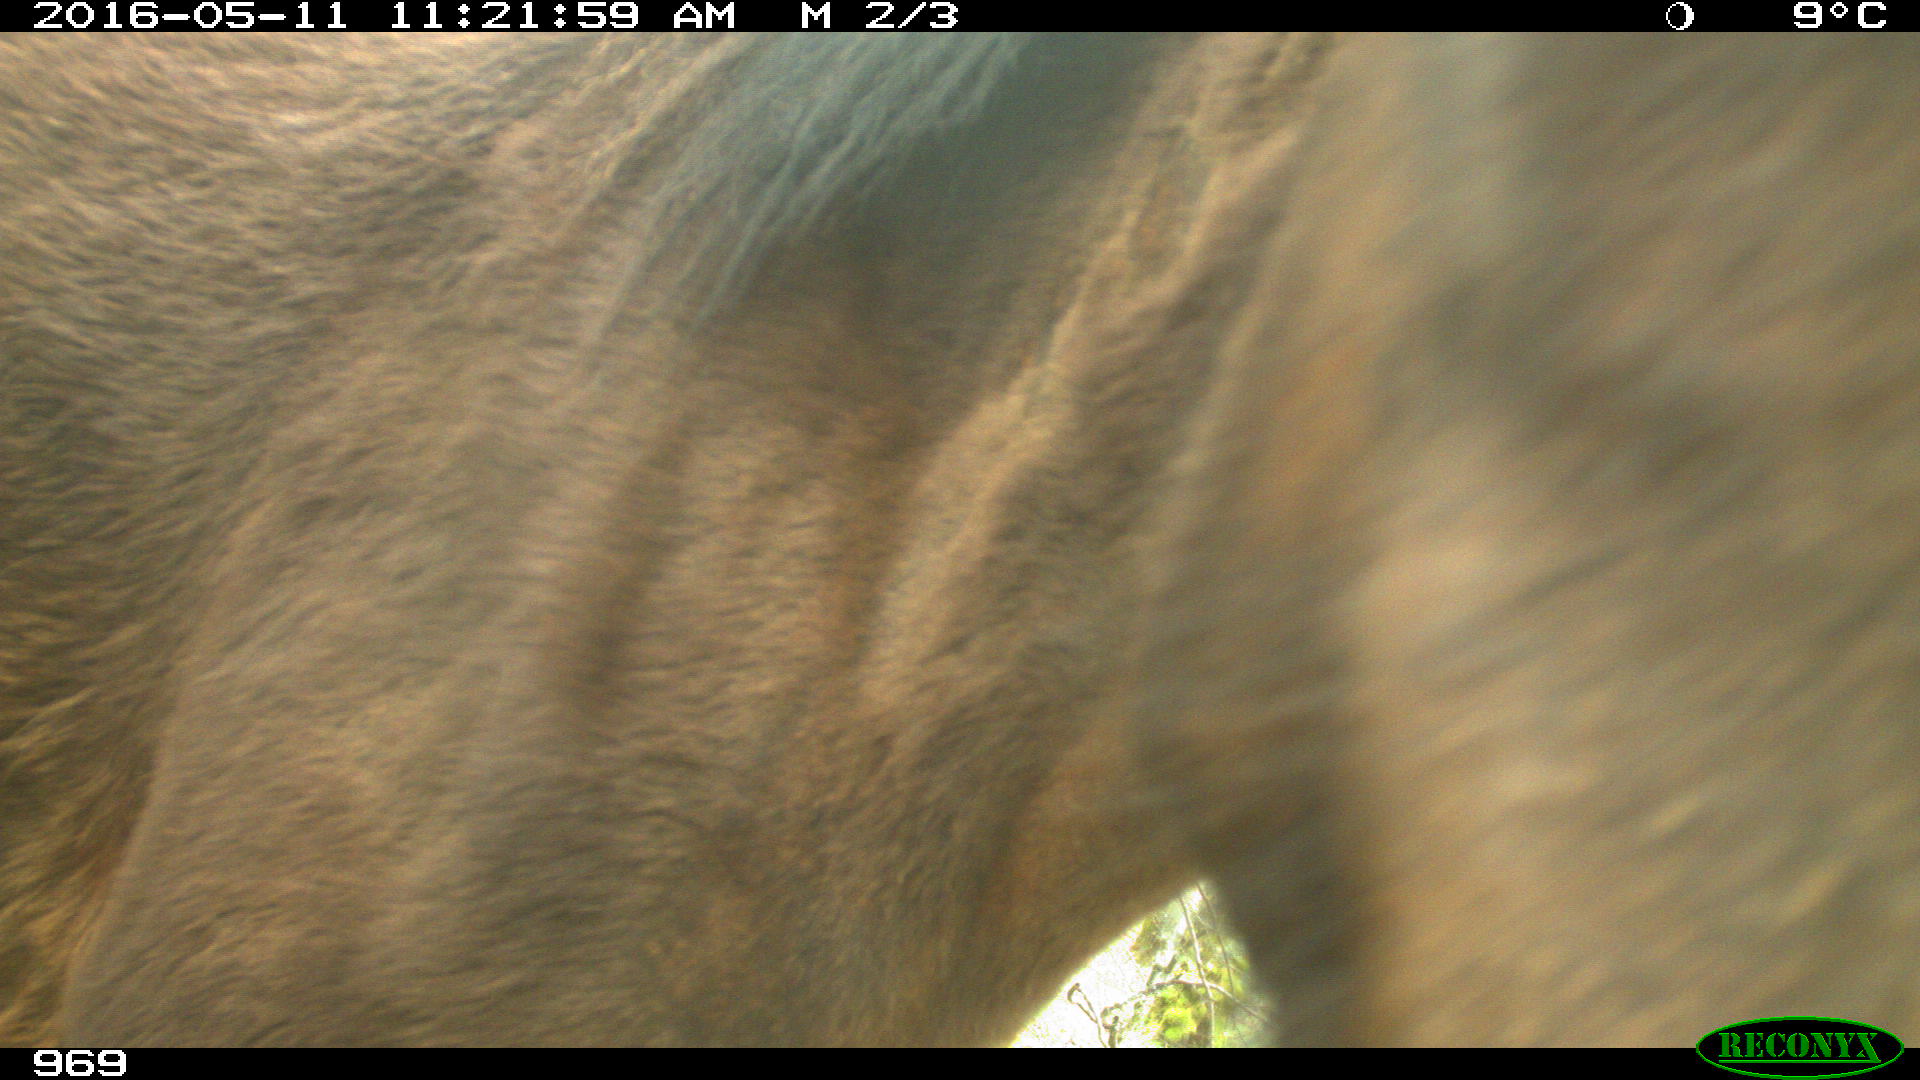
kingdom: Animalia
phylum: Chordata
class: Mammalia
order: Perissodactyla
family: Equidae
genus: Equus
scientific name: Equus caballus
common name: Horse
